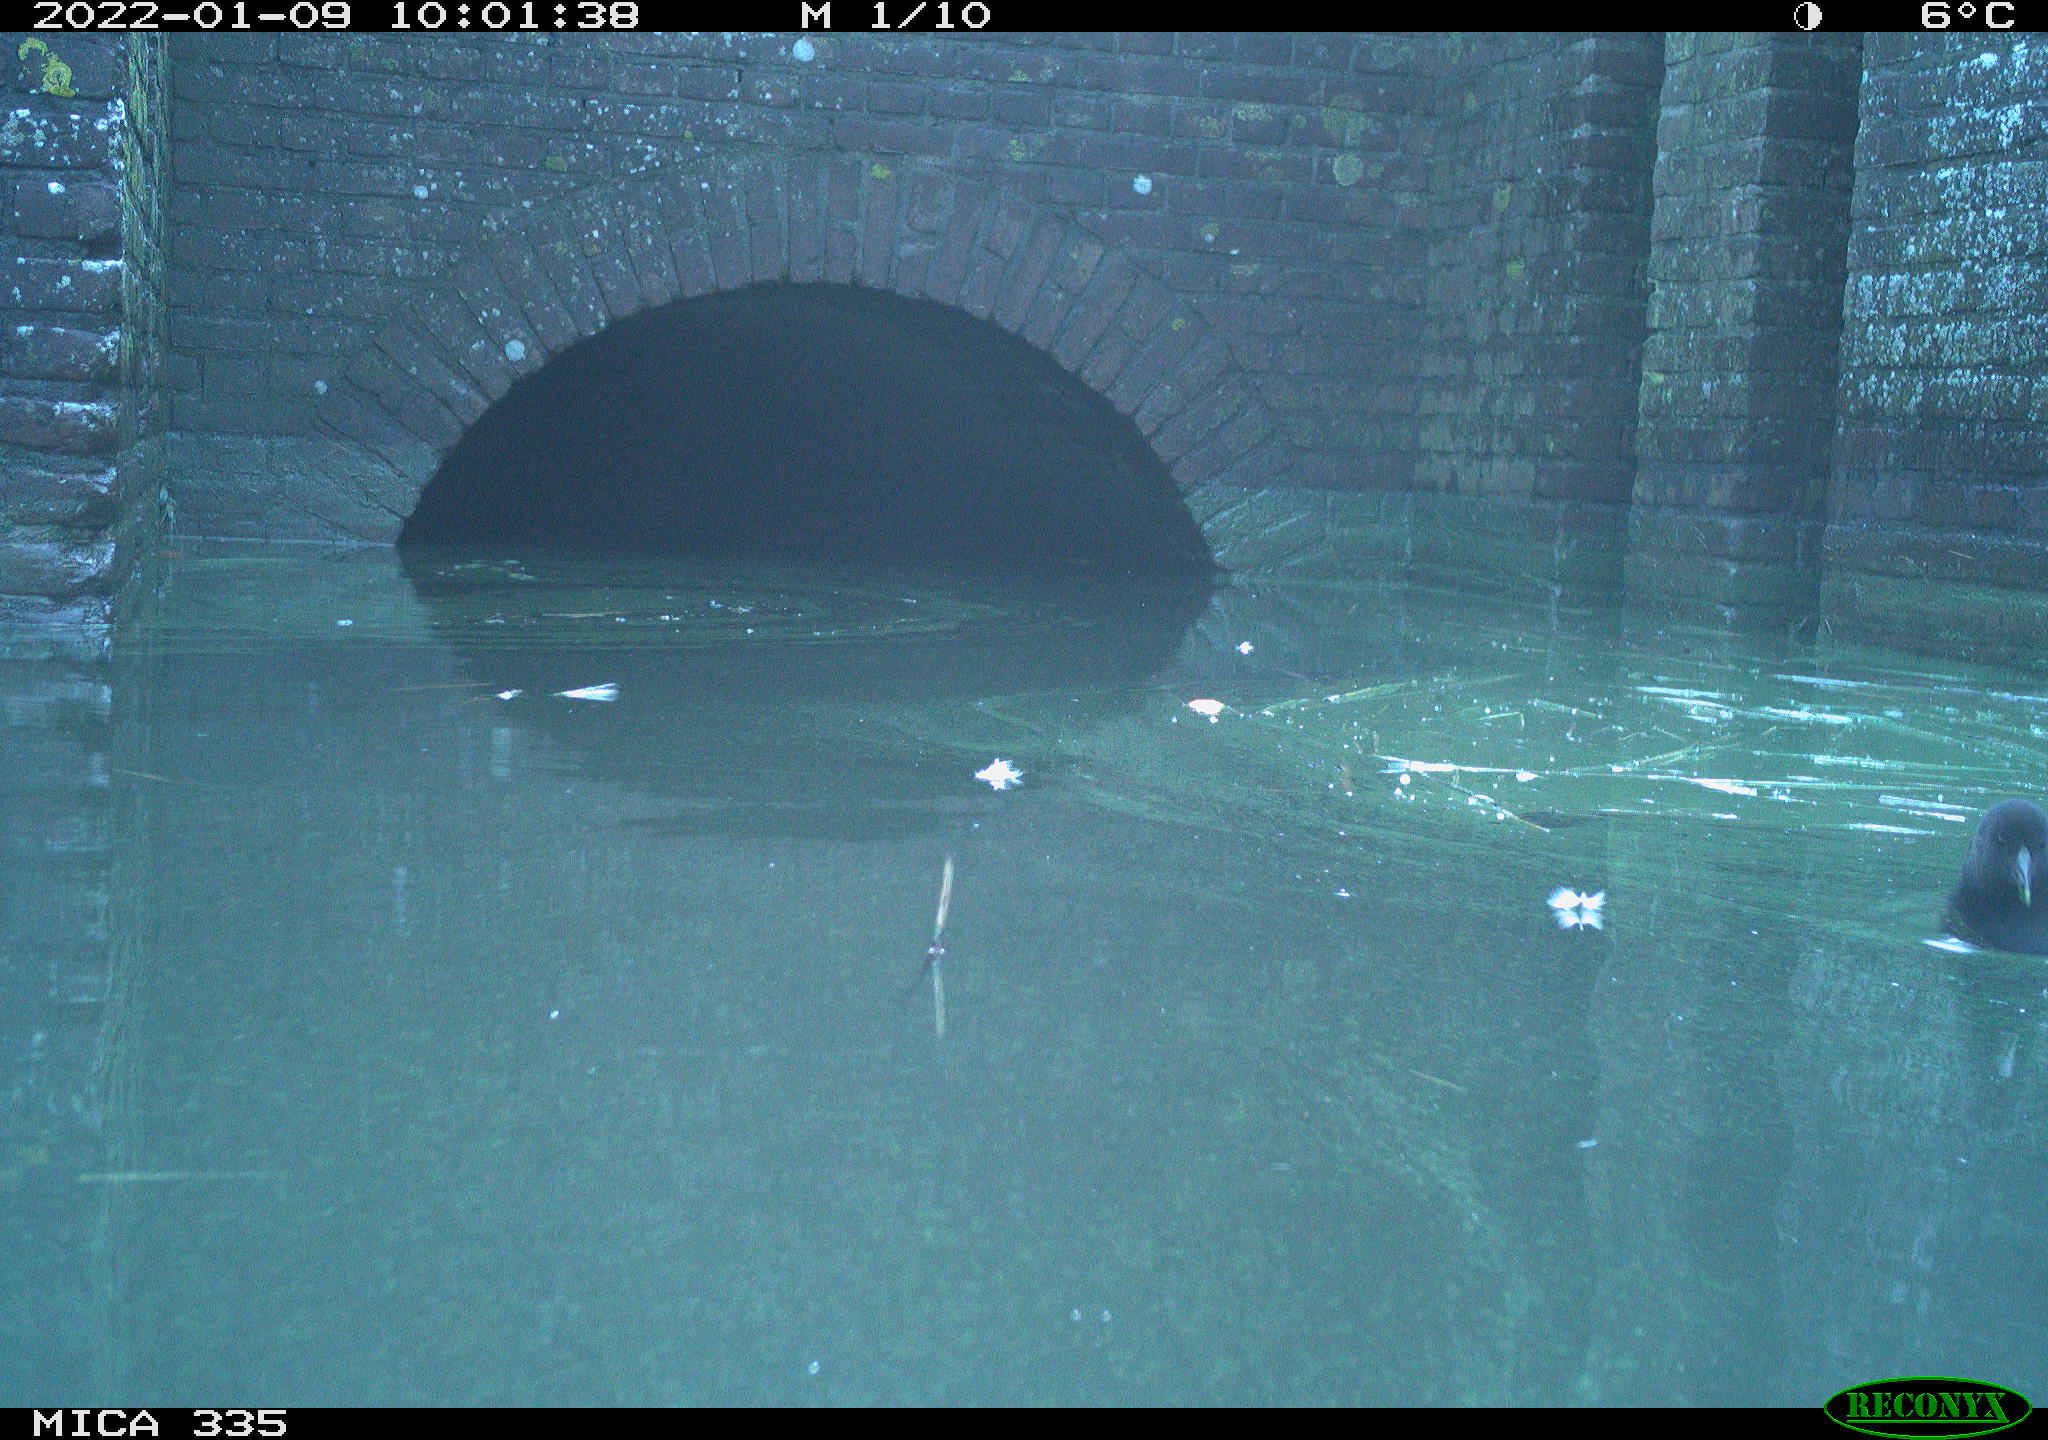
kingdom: Animalia
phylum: Chordata
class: Aves
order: Gruiformes
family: Rallidae
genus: Gallinula
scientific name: Gallinula chloropus
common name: Common moorhen
